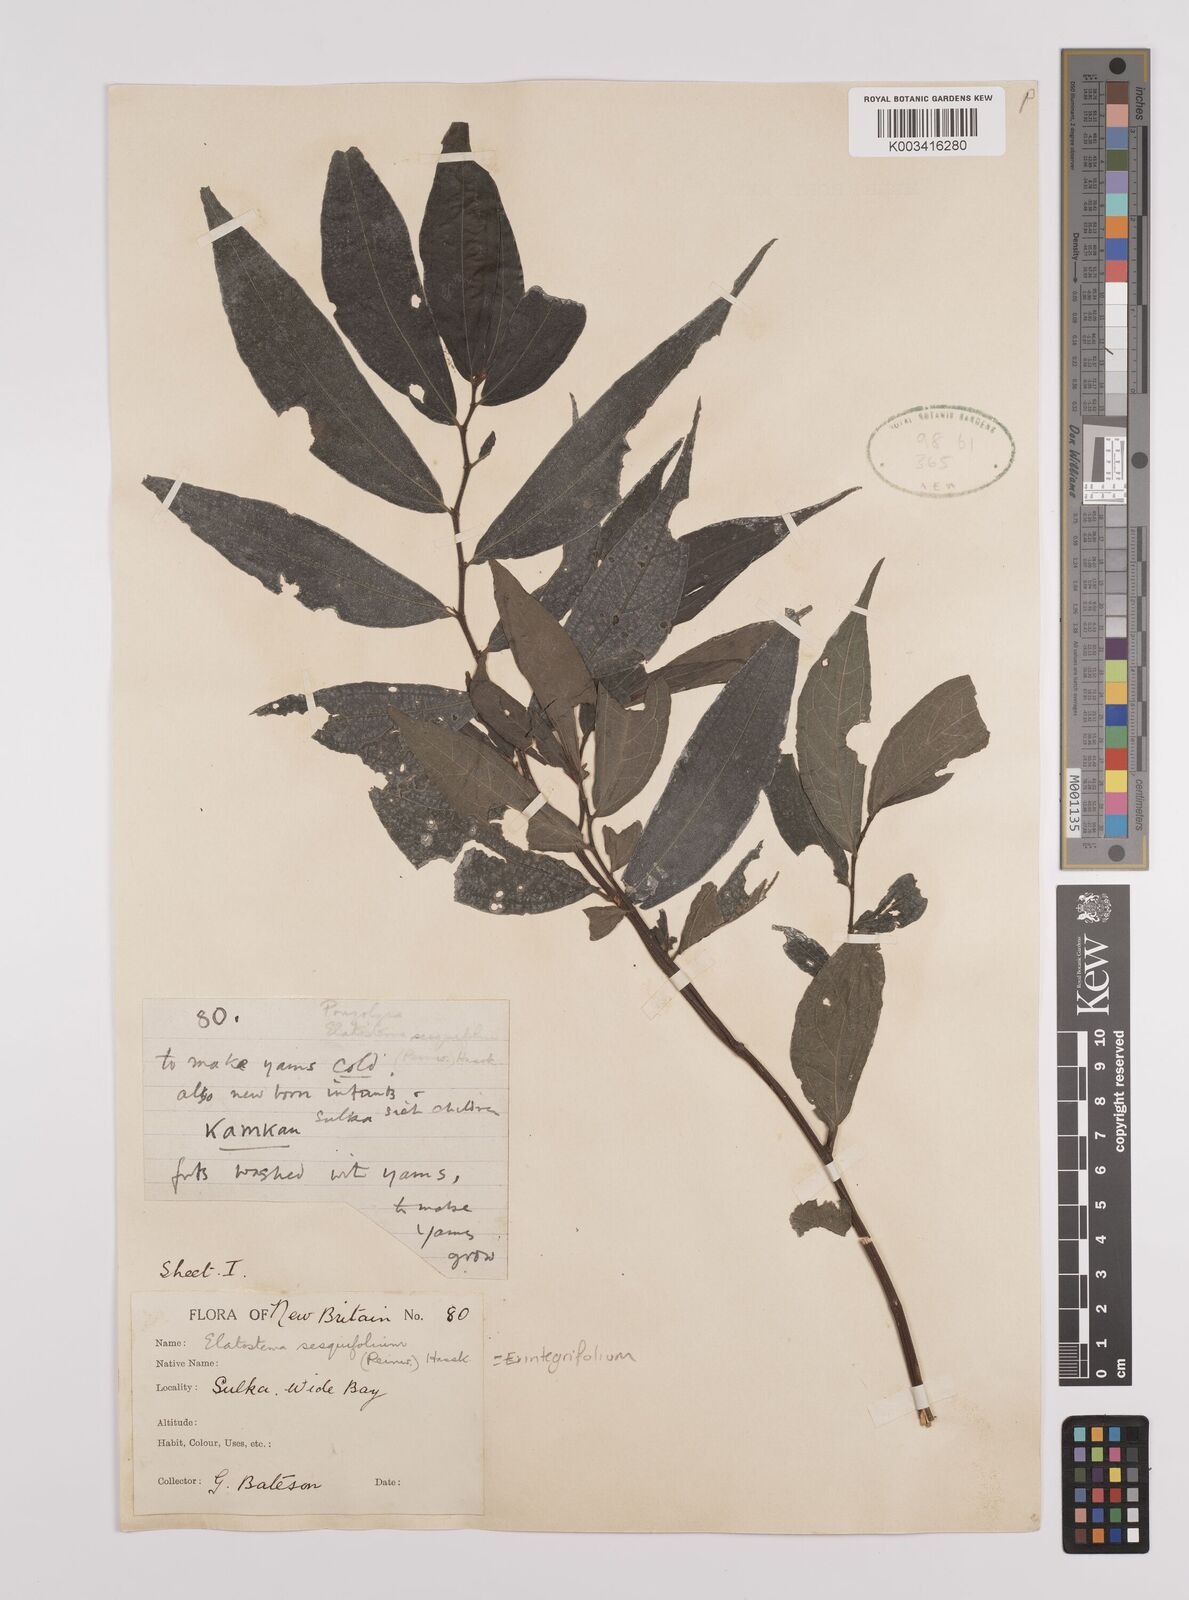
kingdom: Plantae
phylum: Tracheophyta
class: Magnoliopsida
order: Rosales
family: Urticaceae
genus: Elatostema
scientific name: Elatostema integrifolium
